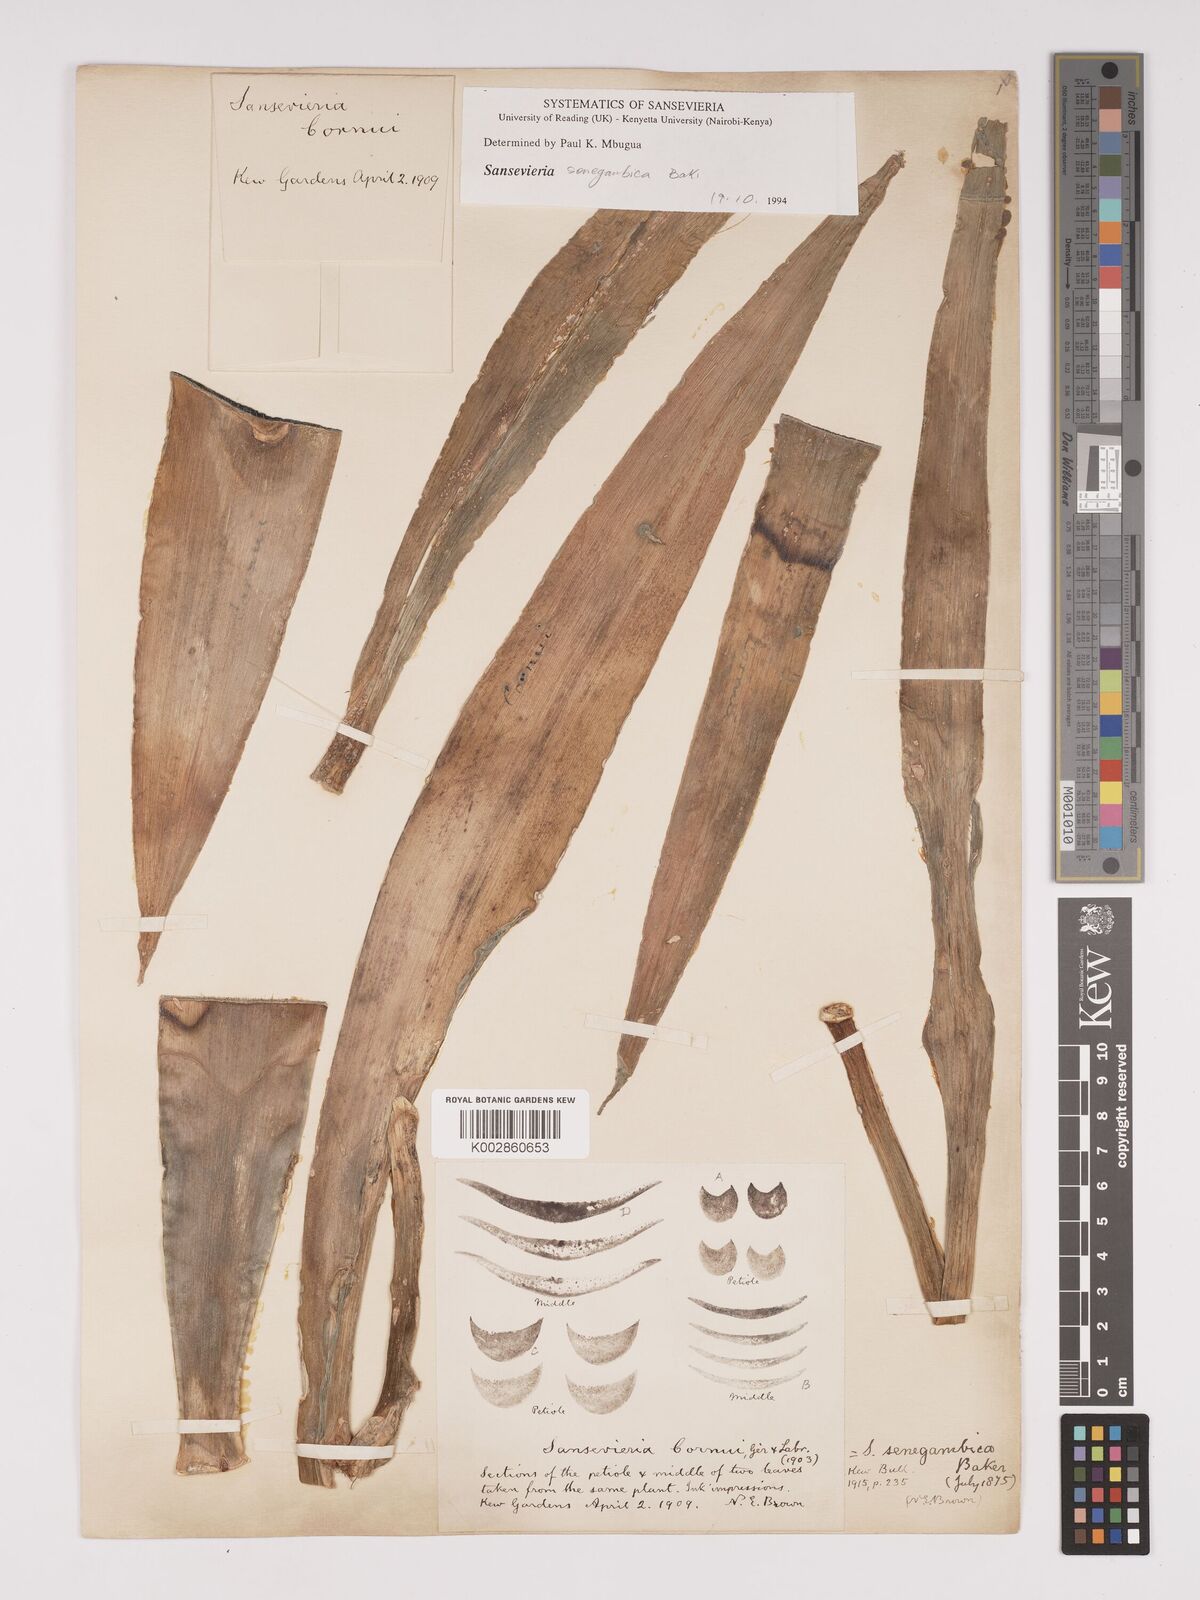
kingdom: Plantae
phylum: Tracheophyta
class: Liliopsida
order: Asparagales
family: Asparagaceae
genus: Dracaena
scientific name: Dracaena senegambica
